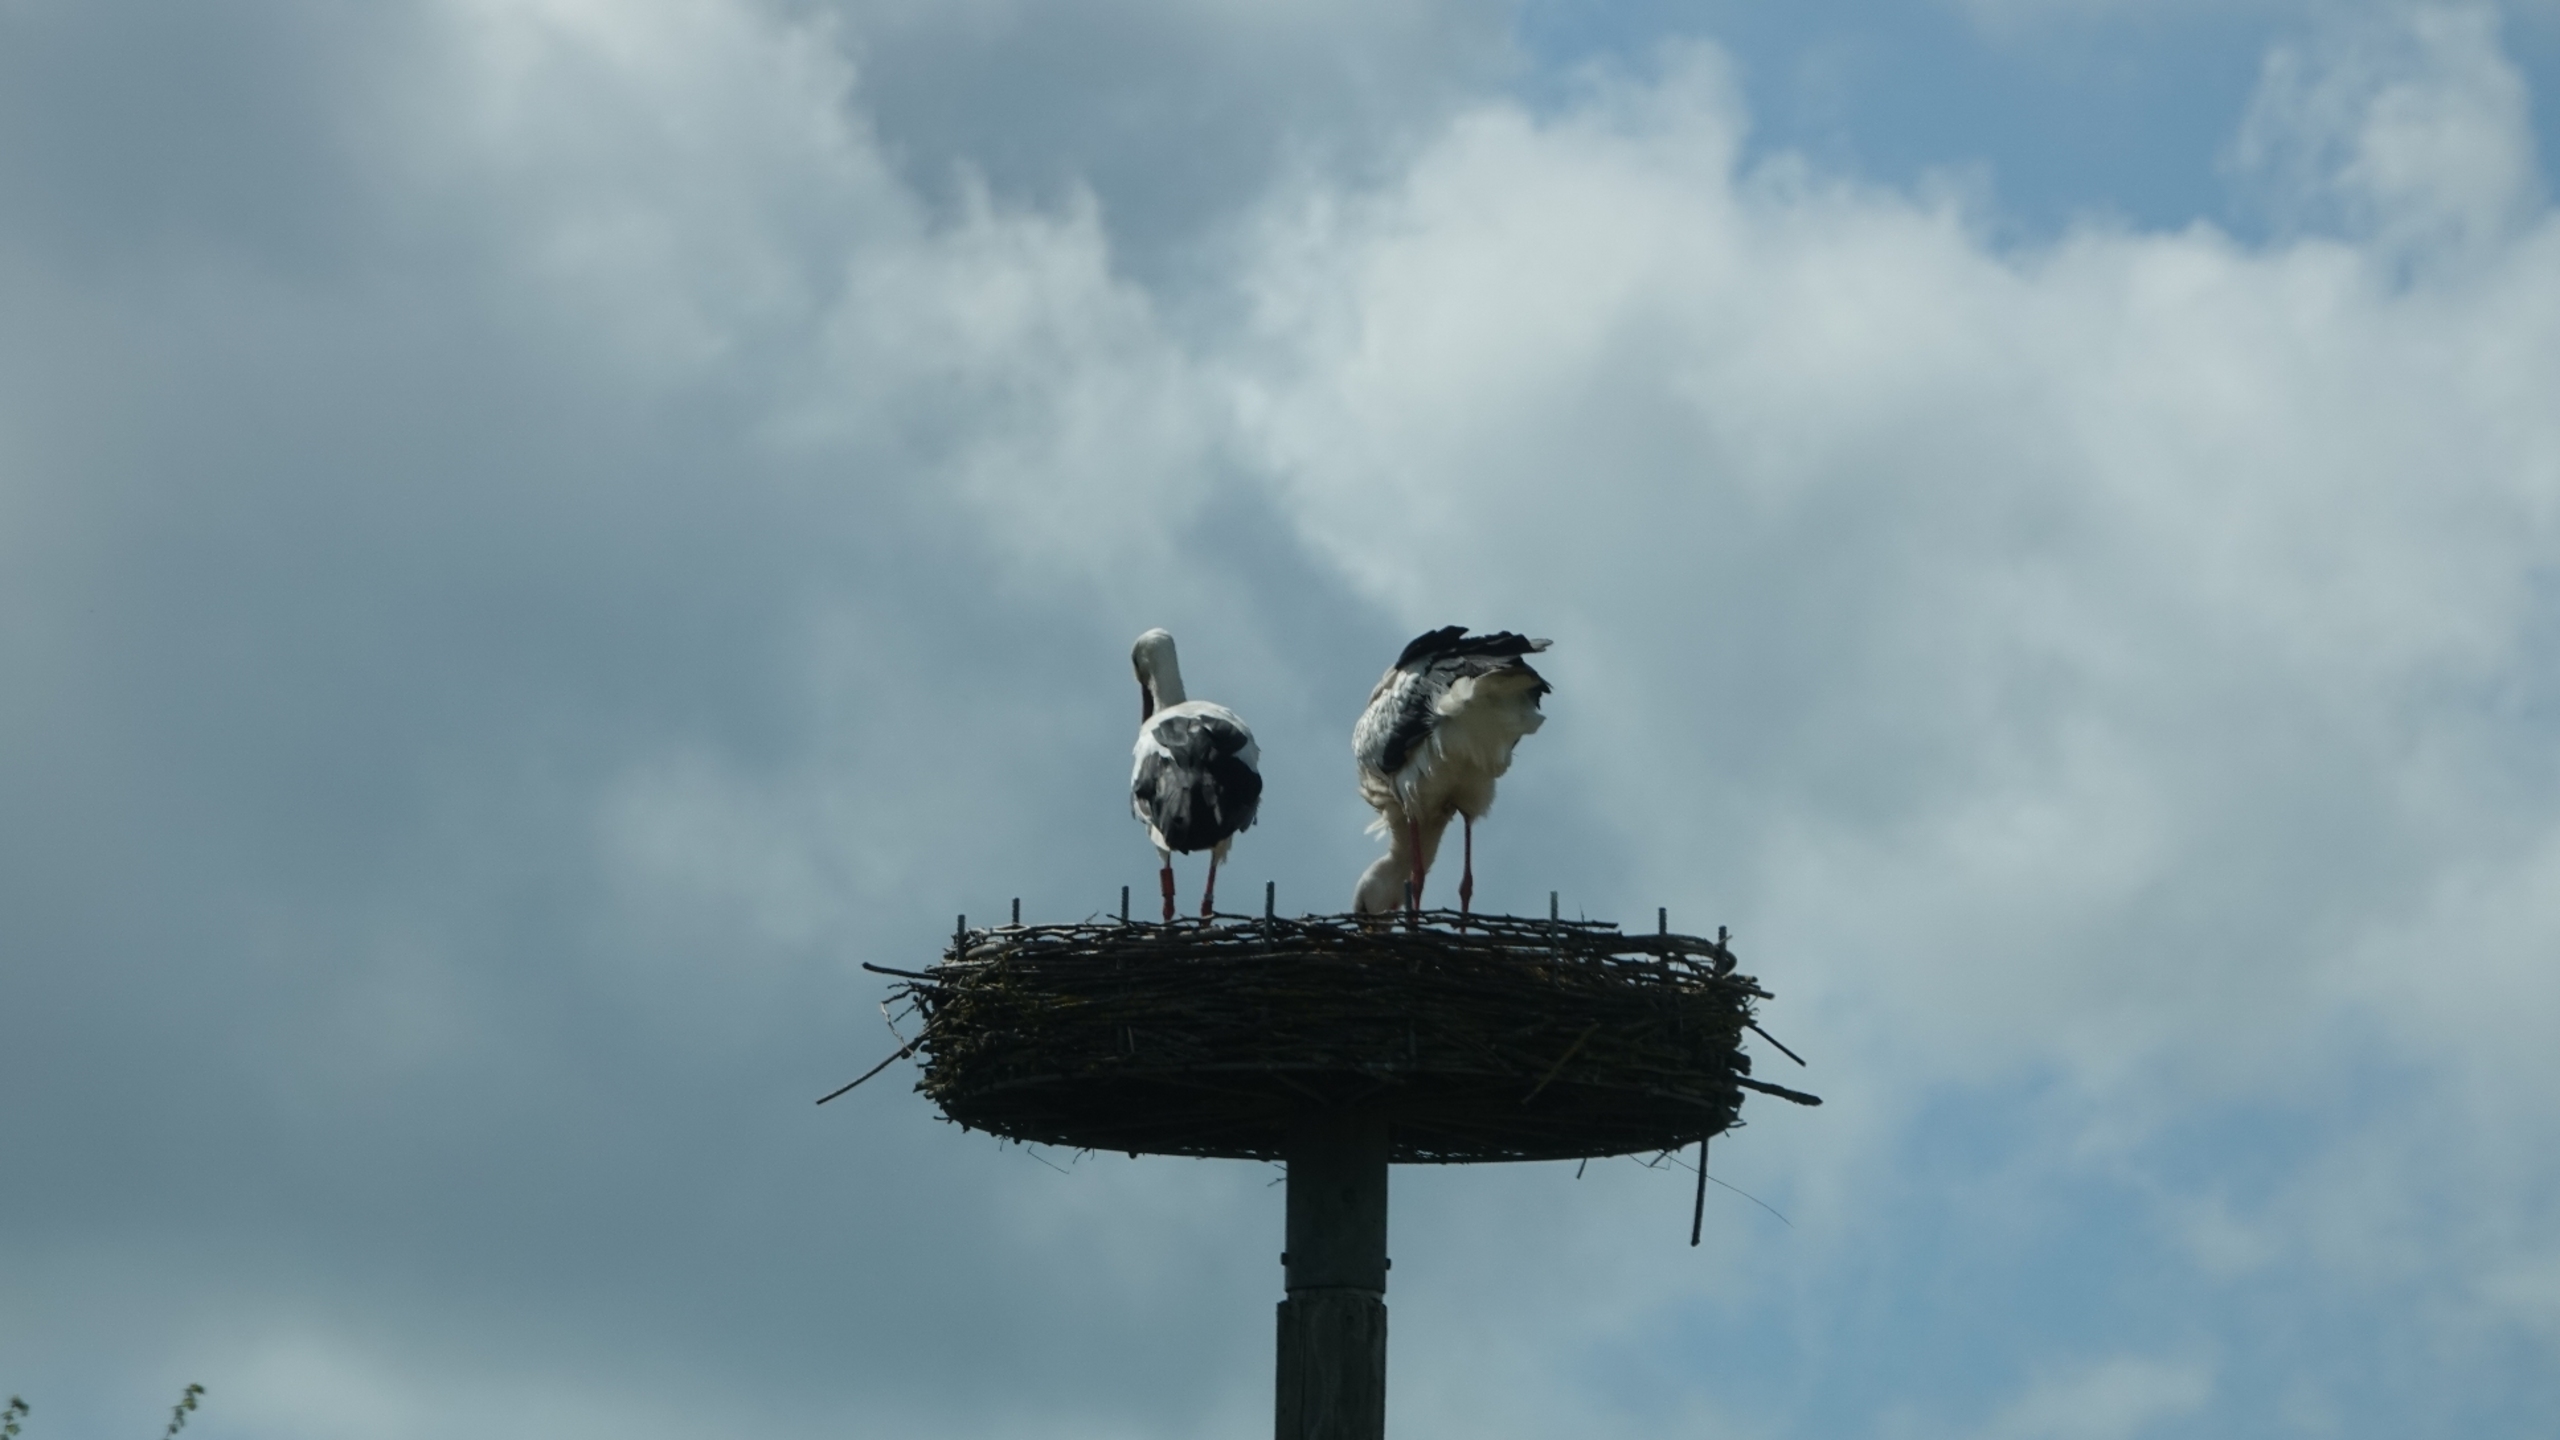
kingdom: Animalia
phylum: Chordata
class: Aves
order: Ciconiiformes
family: Ciconiidae
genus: Ciconia
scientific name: Ciconia ciconia
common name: Hvid stork
